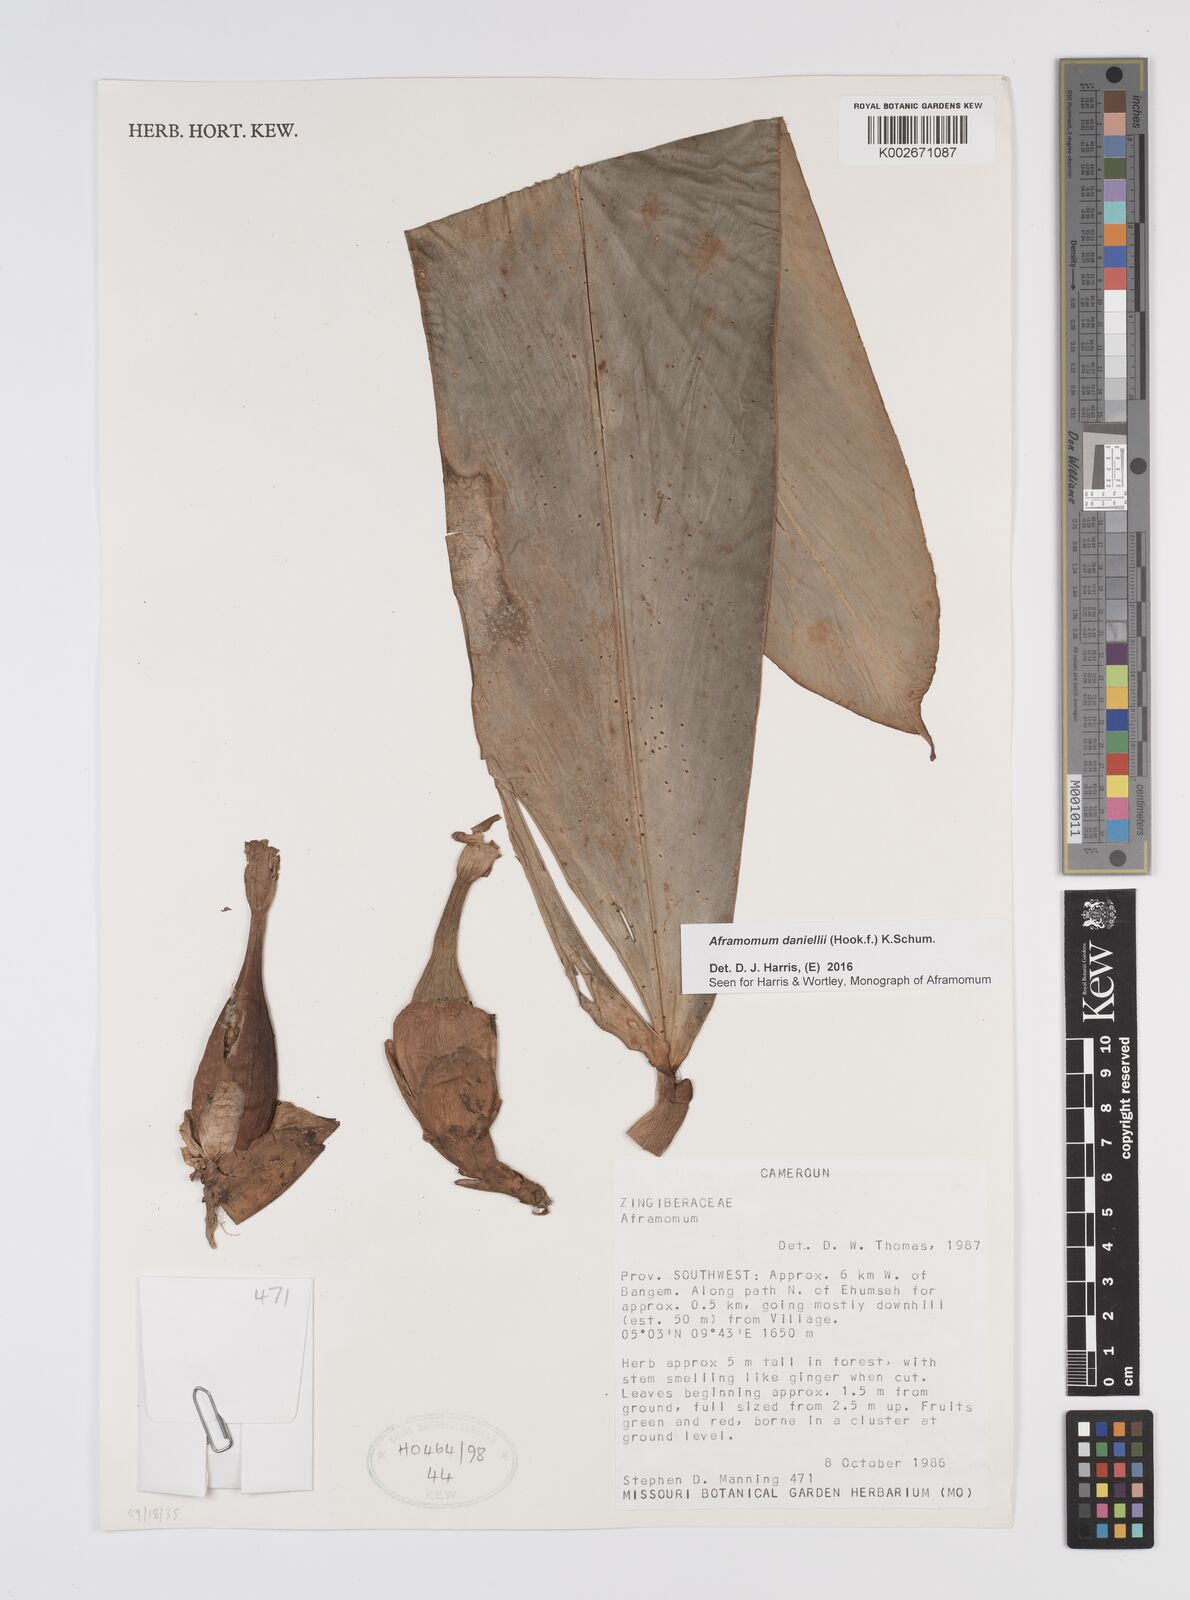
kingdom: Plantae
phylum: Tracheophyta
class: Liliopsida
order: Zingiberales
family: Zingiberaceae
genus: Aframomum
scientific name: Aframomum daniellii
